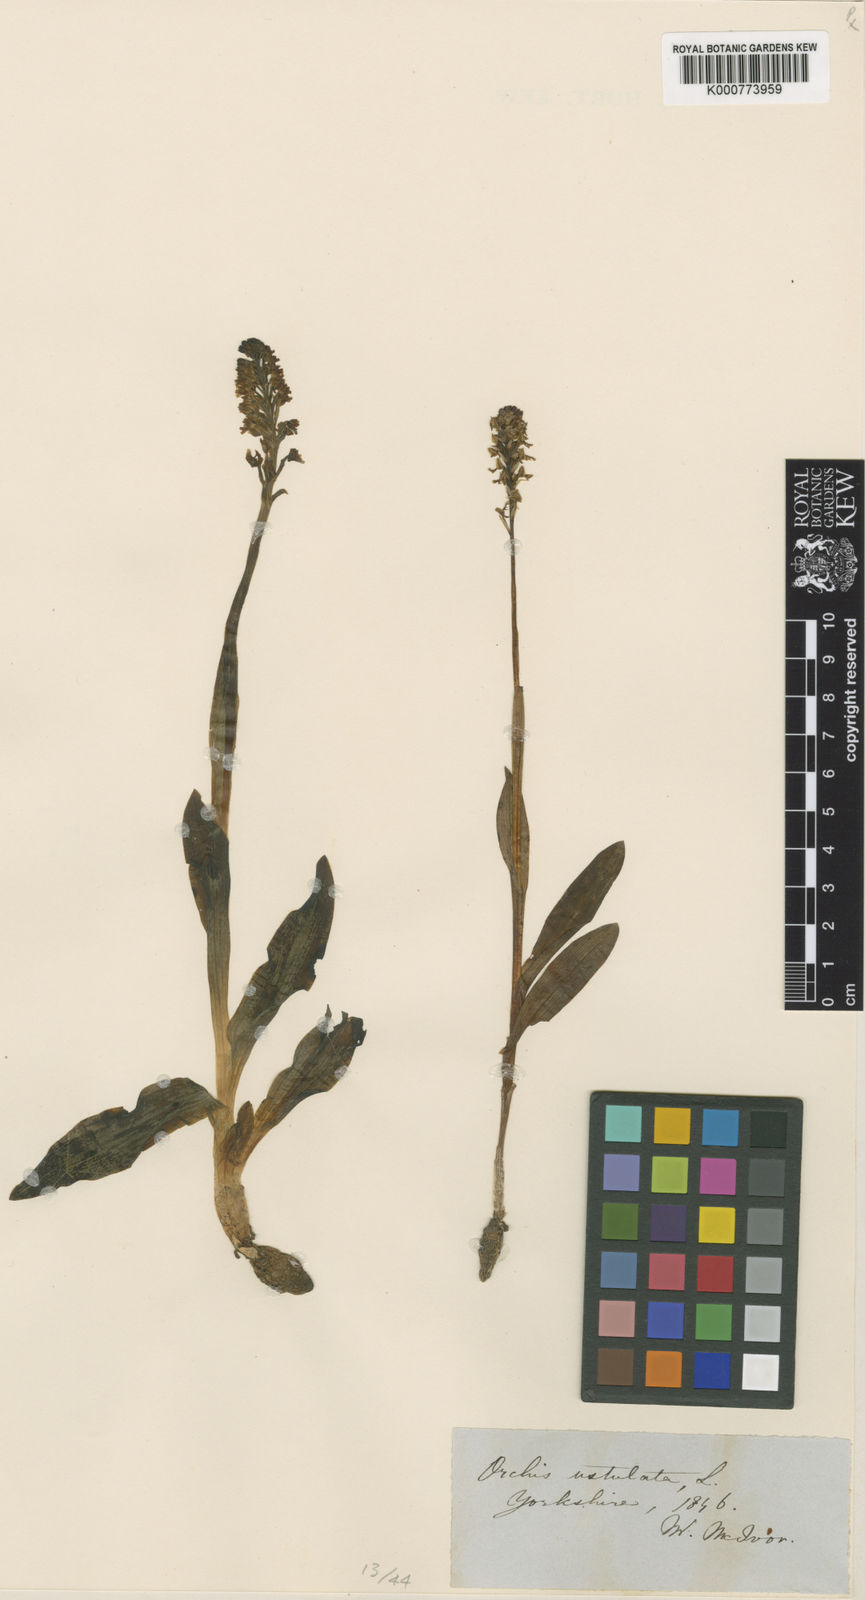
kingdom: Plantae
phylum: Tracheophyta
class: Liliopsida
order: Asparagales
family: Orchidaceae
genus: Neotinea
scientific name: Neotinea ustulata
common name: Burnt orchid
